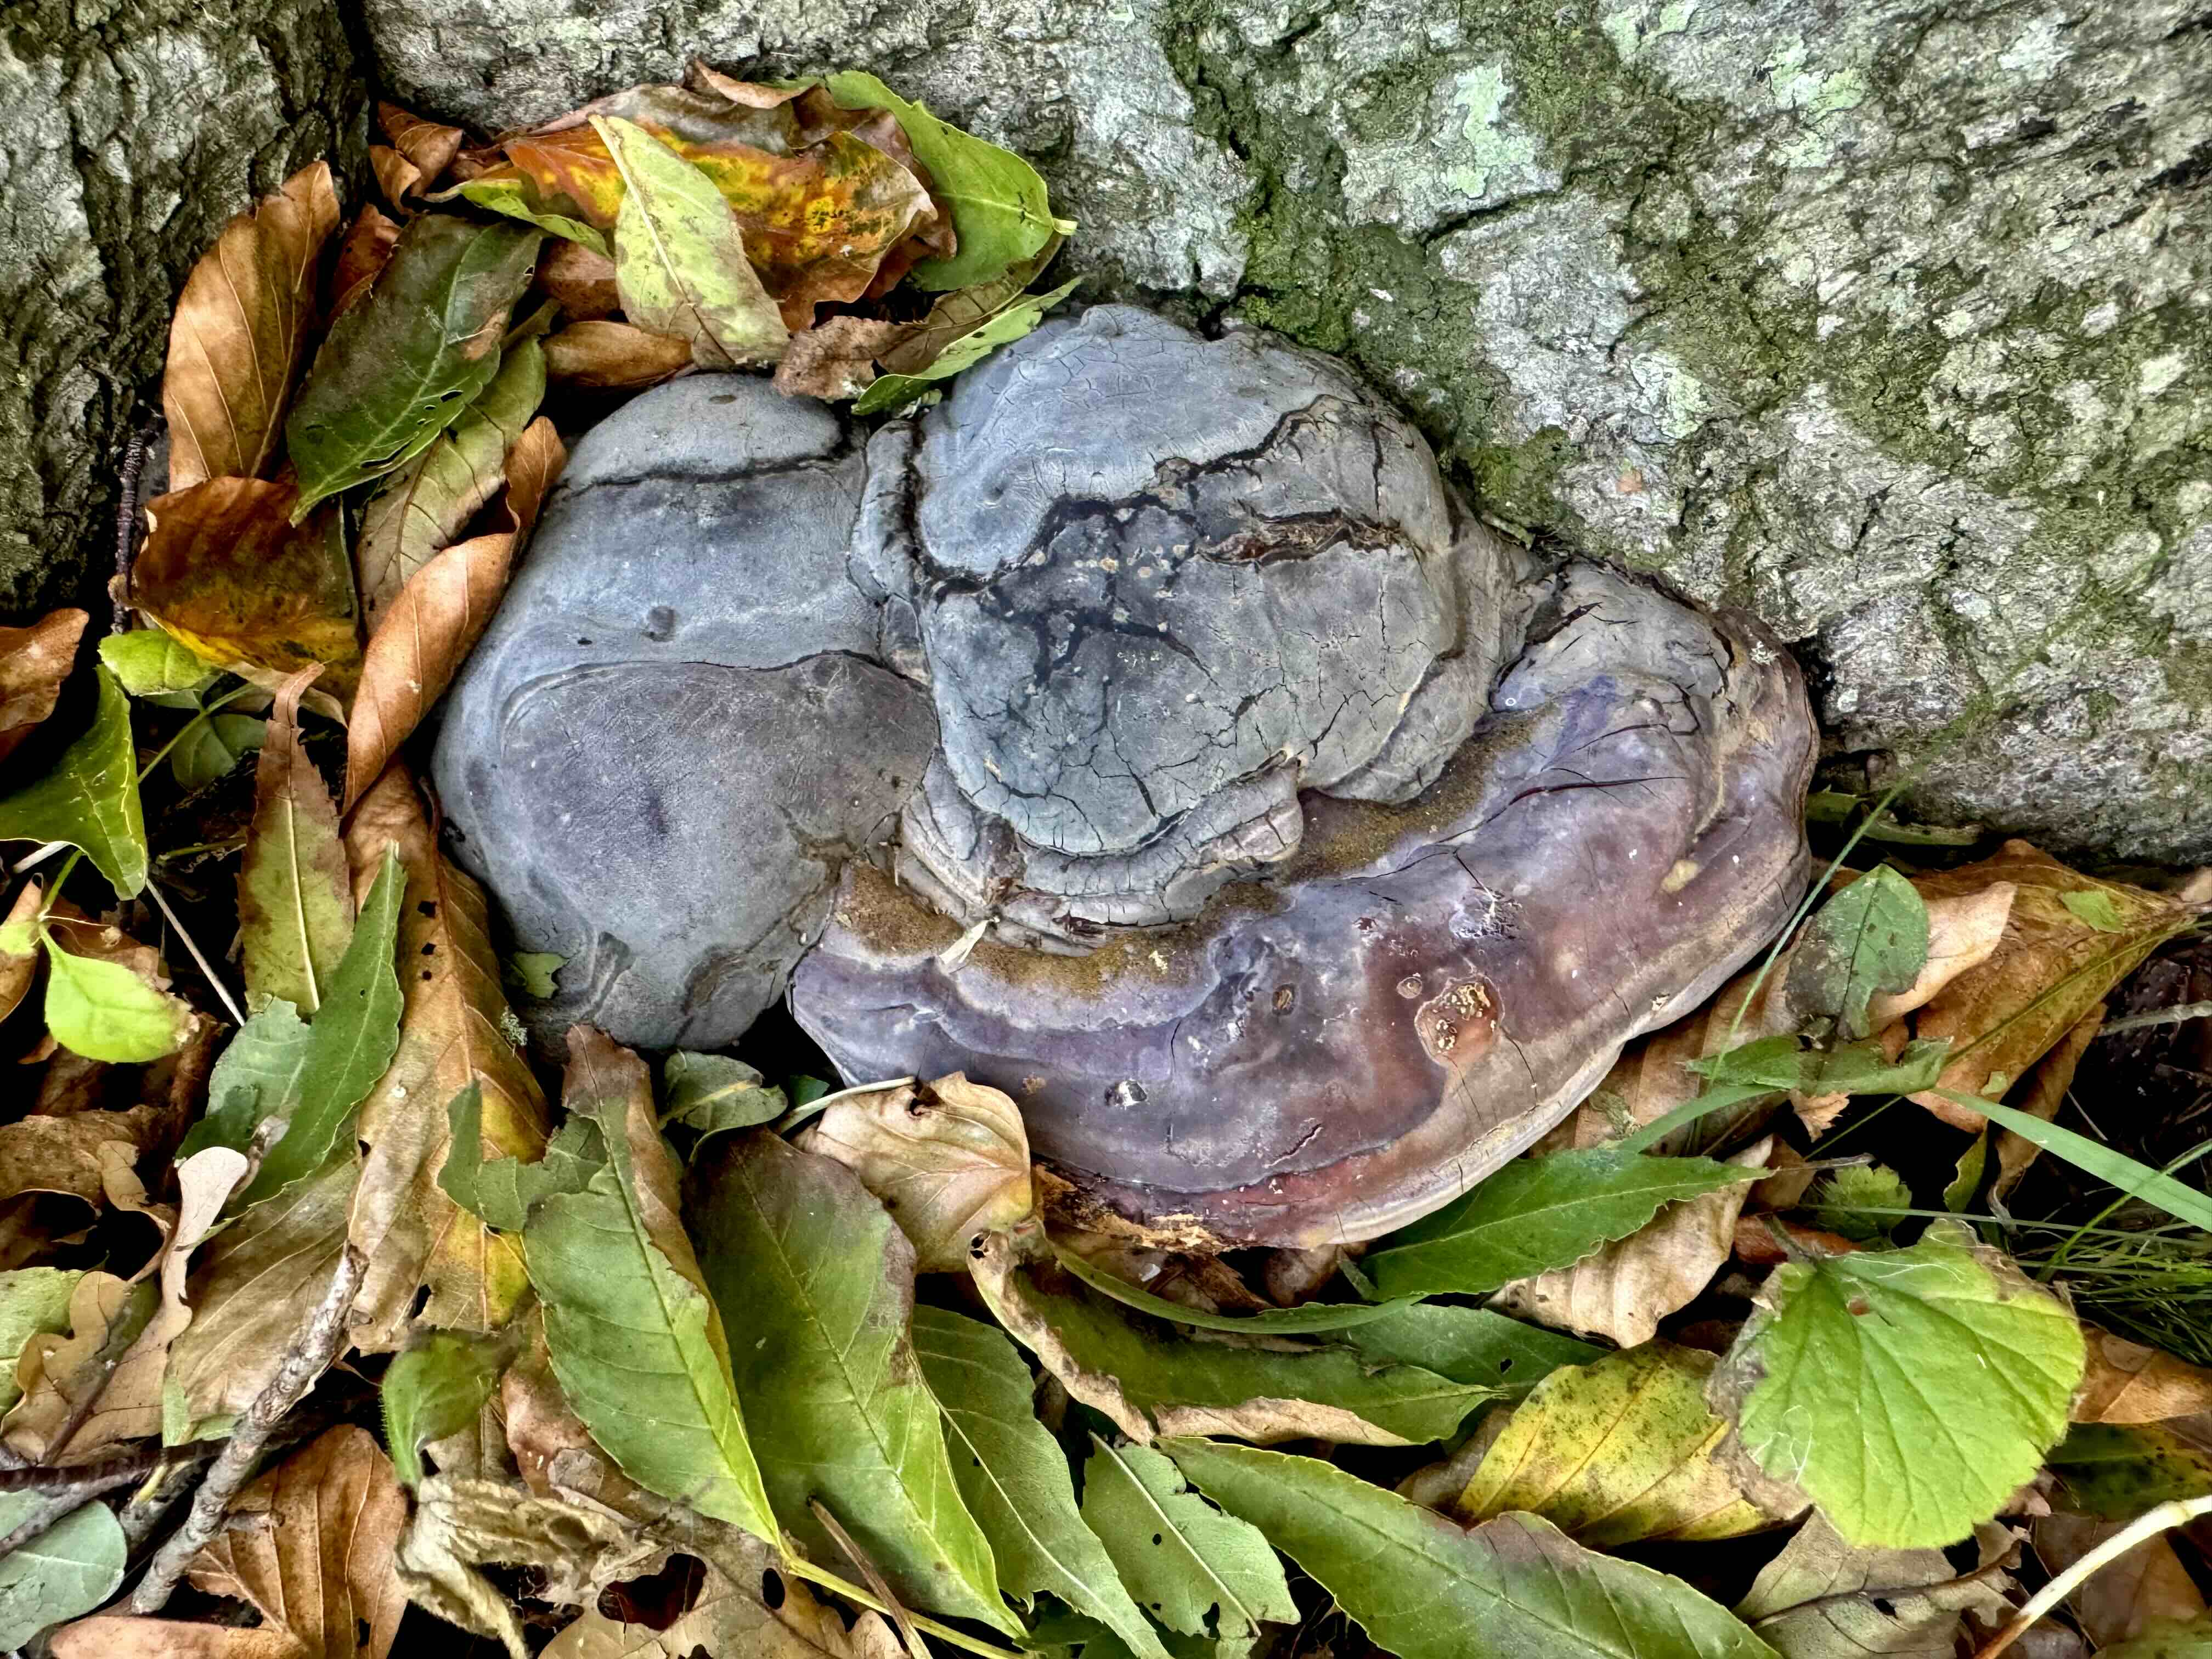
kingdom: Fungi
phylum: Basidiomycota
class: Agaricomycetes
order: Polyporales
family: Polyporaceae
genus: Ganoderma
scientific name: Ganoderma pfeifferi
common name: kobberrød lakporesvamp
